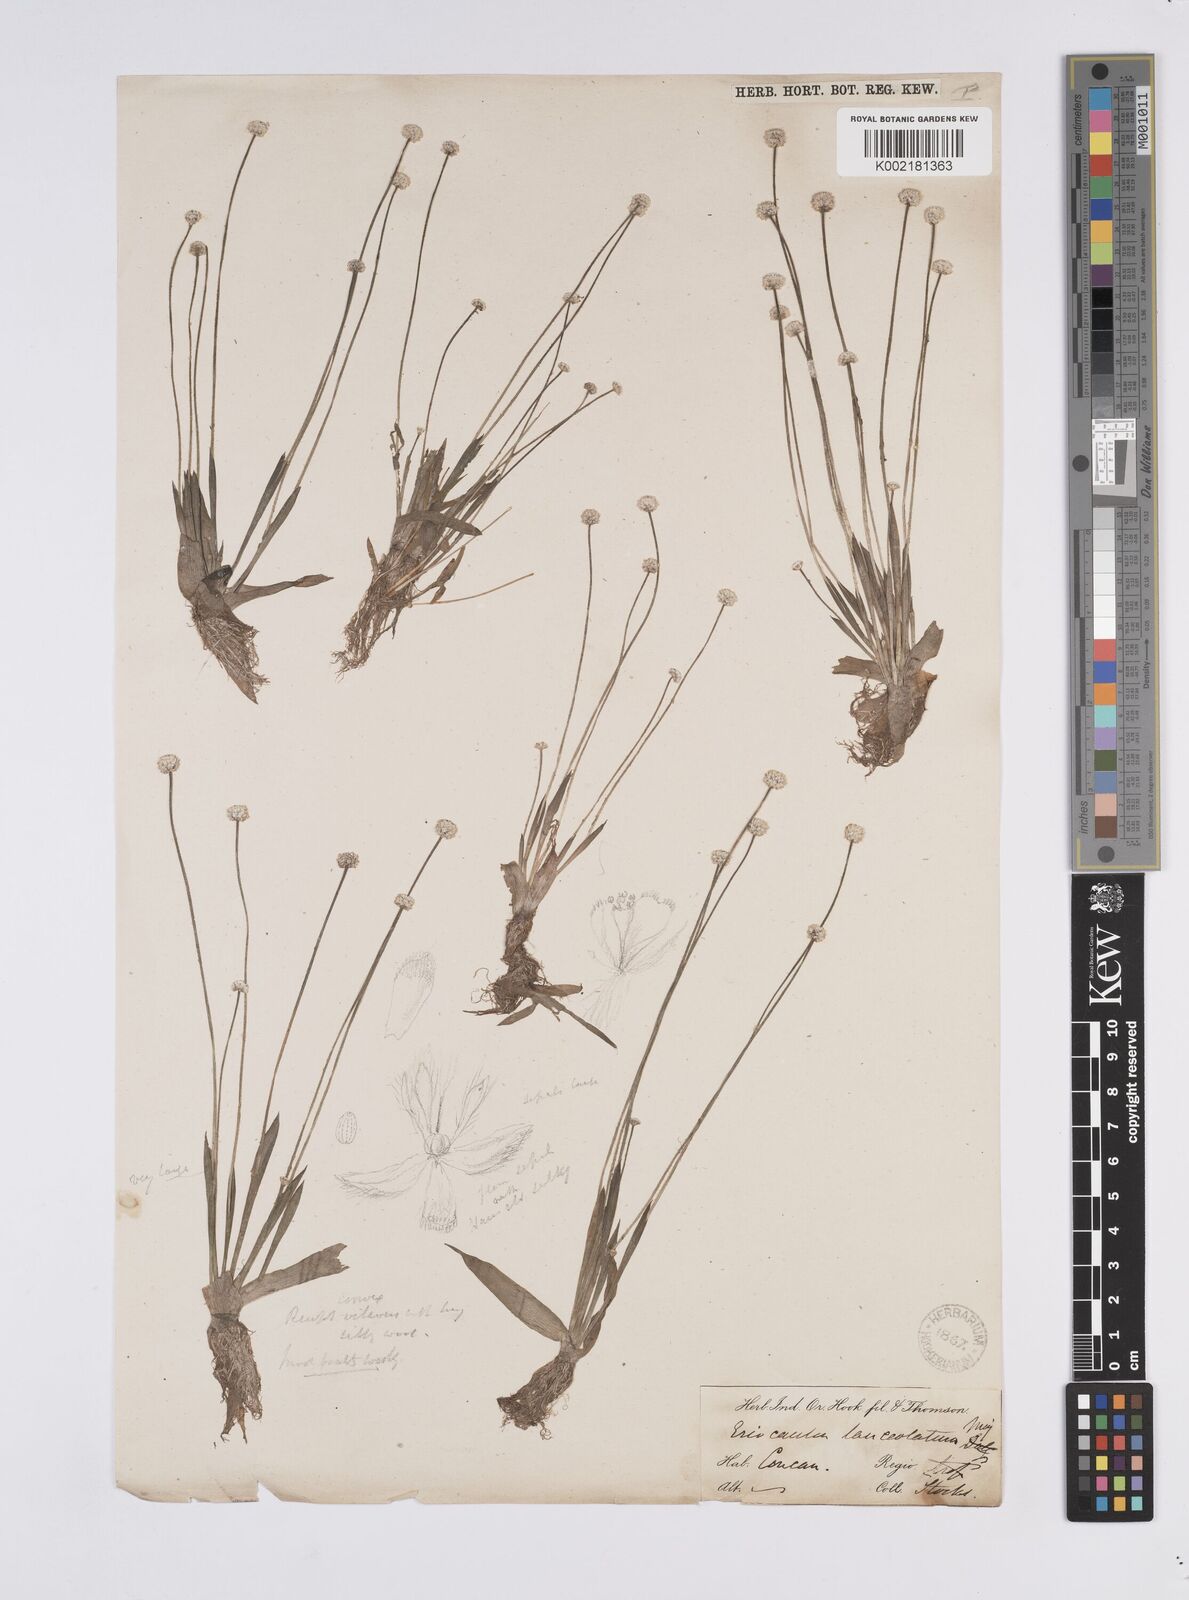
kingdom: Plantae
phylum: Tracheophyta
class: Liliopsida
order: Poales
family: Eriocaulaceae
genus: Eriocaulon
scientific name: Eriocaulon lanceolatum
